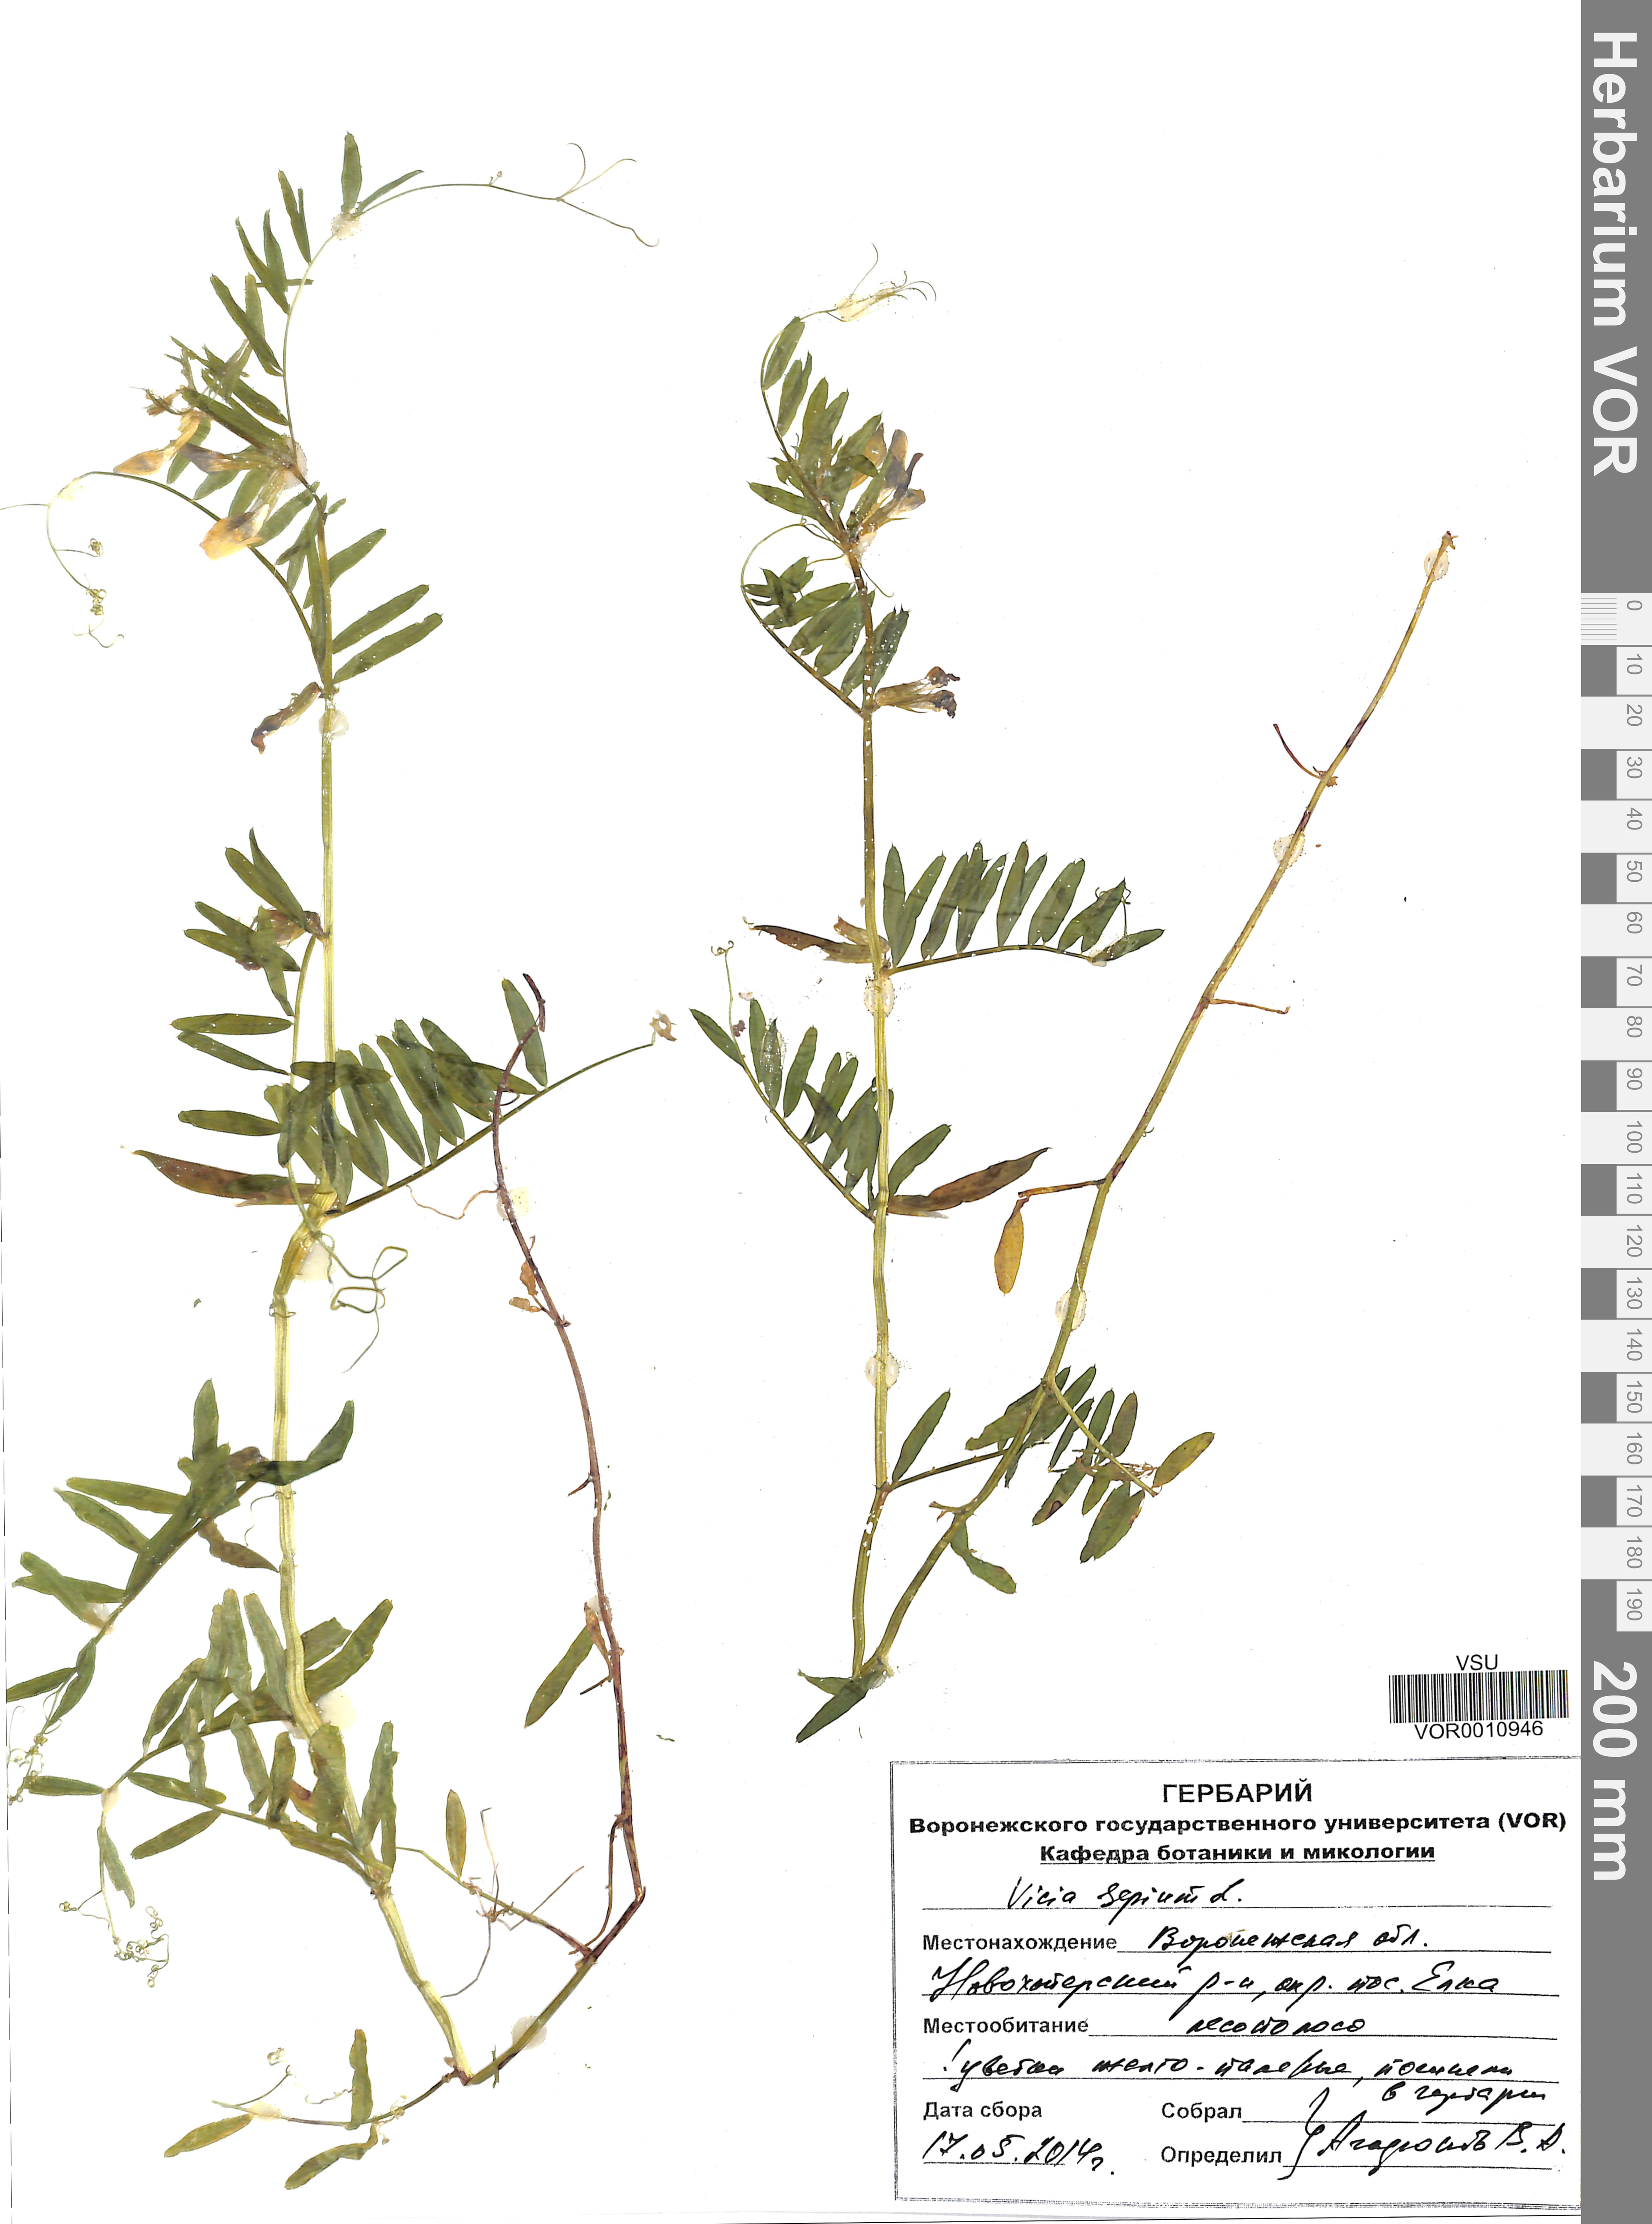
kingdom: Plantae
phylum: Tracheophyta
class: Magnoliopsida
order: Fabales
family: Fabaceae
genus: Vicia
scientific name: Vicia sepium
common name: Bush vetch
